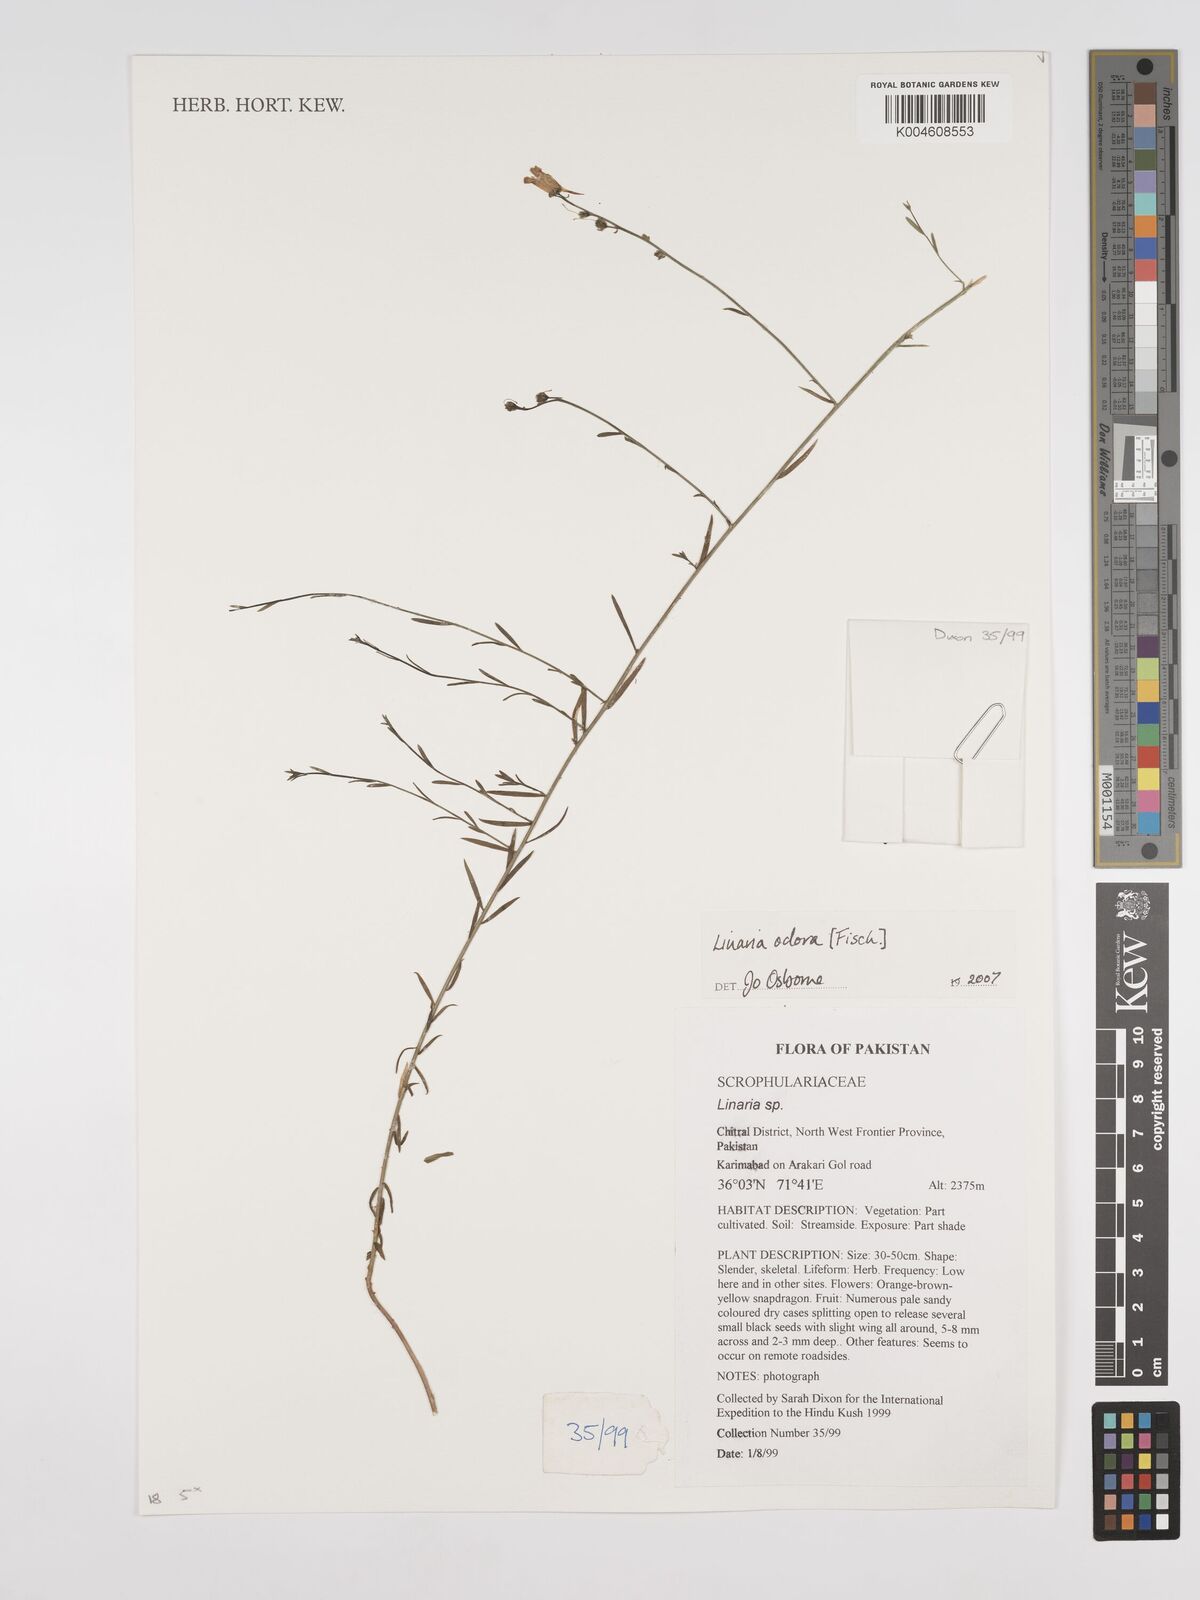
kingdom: Plantae
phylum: Tracheophyta
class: Magnoliopsida
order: Lamiales
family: Plantaginaceae
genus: Kickxia
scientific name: Kickxia
